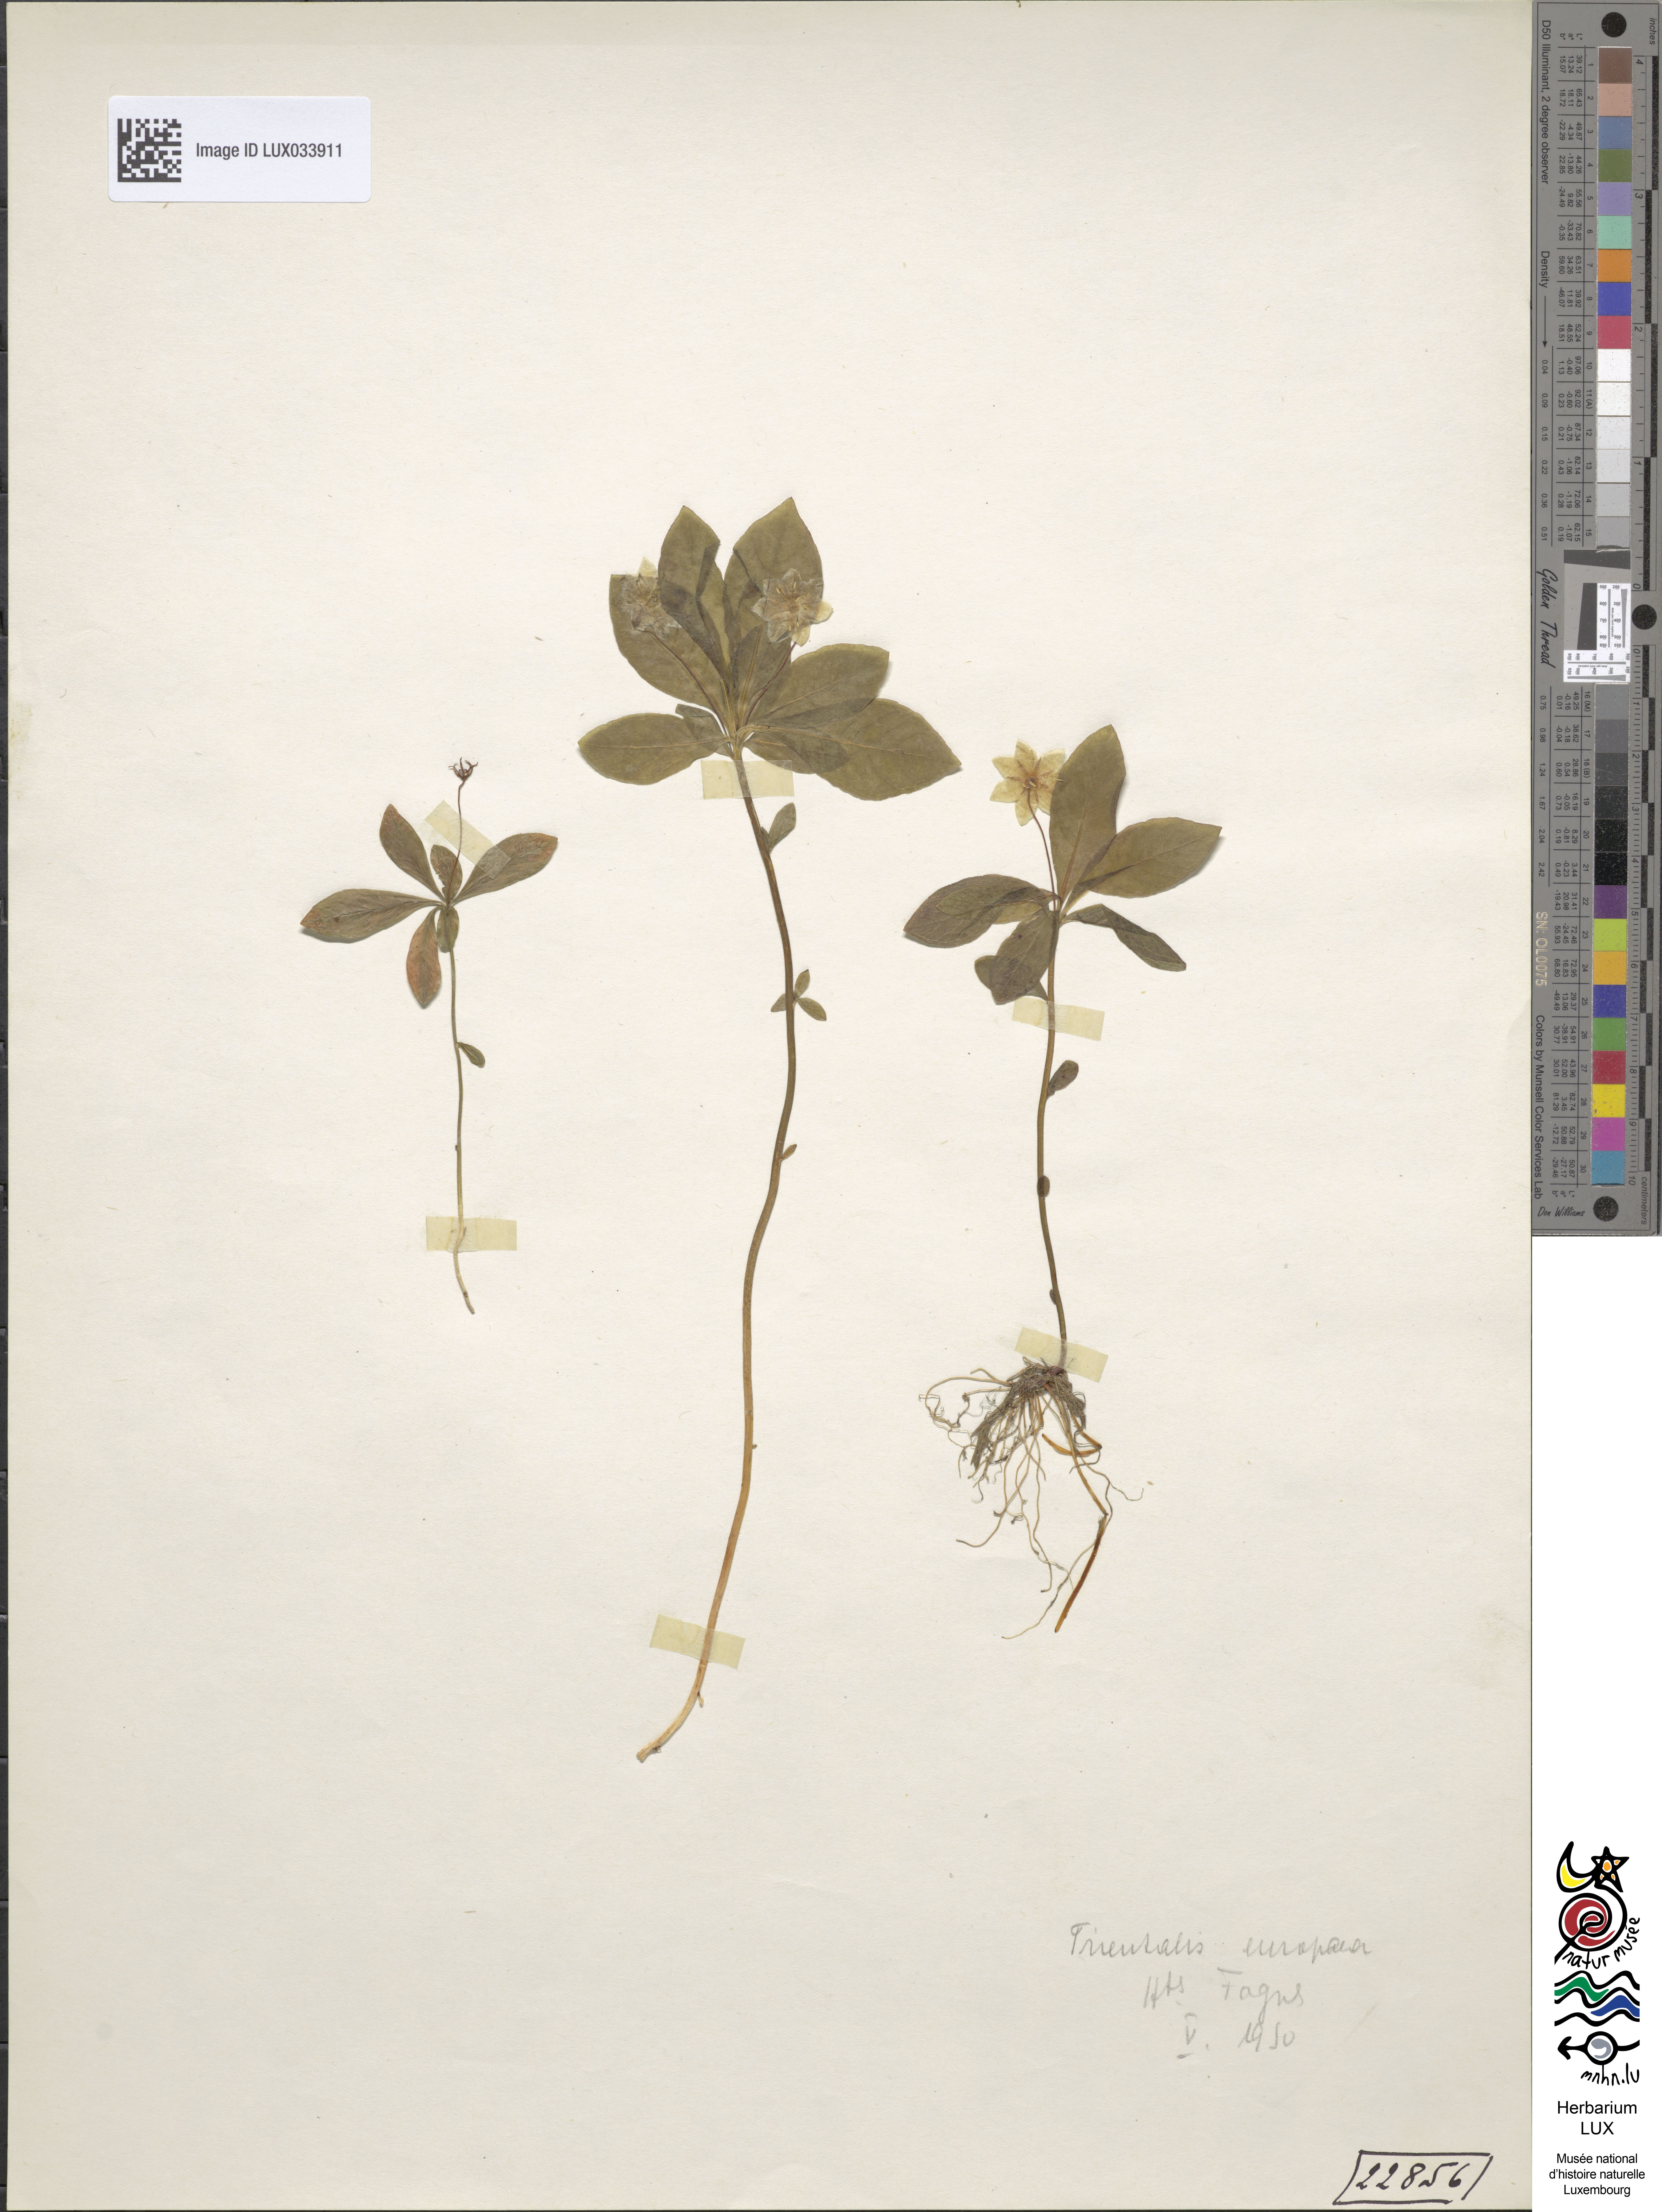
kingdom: Plantae
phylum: Tracheophyta
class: Magnoliopsida
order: Ericales
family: Primulaceae
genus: Lysimachia
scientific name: Lysimachia europaea
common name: Arctic starflower
